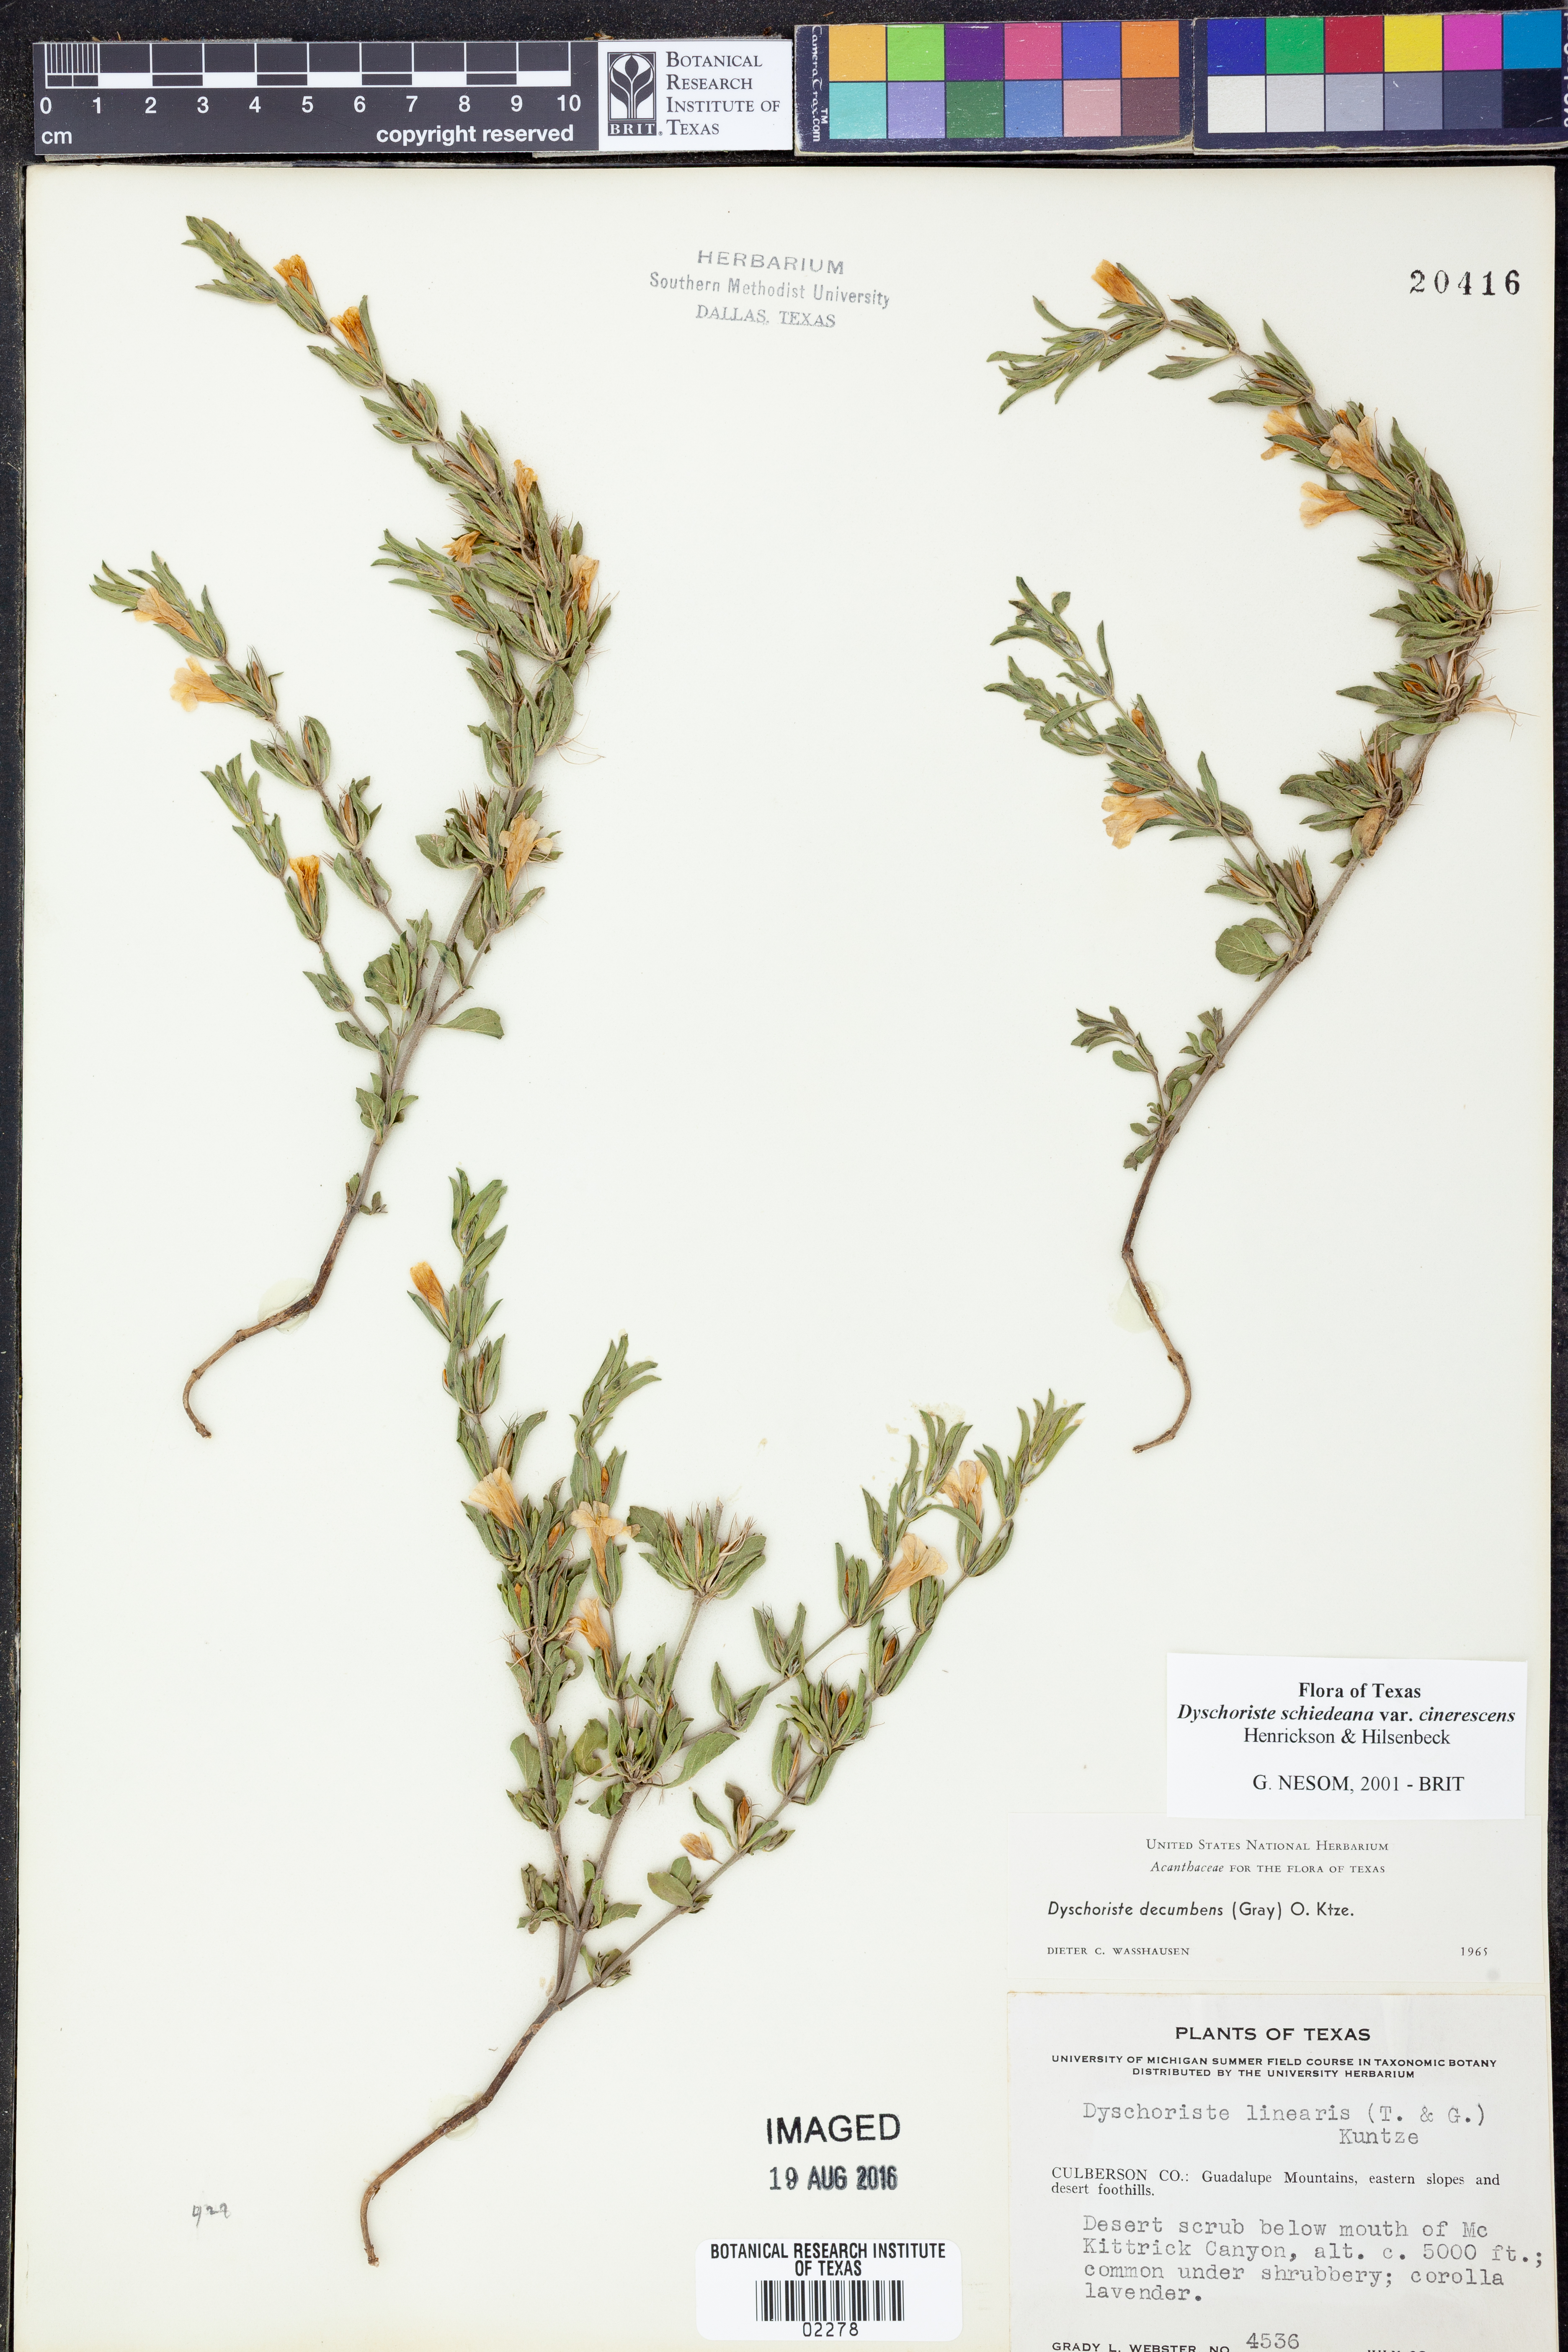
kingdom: Plantae
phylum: Tracheophyta
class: Magnoliopsida
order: Lamiales
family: Acanthaceae
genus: Dyschoriste
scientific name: Dyschoriste cinerascens
